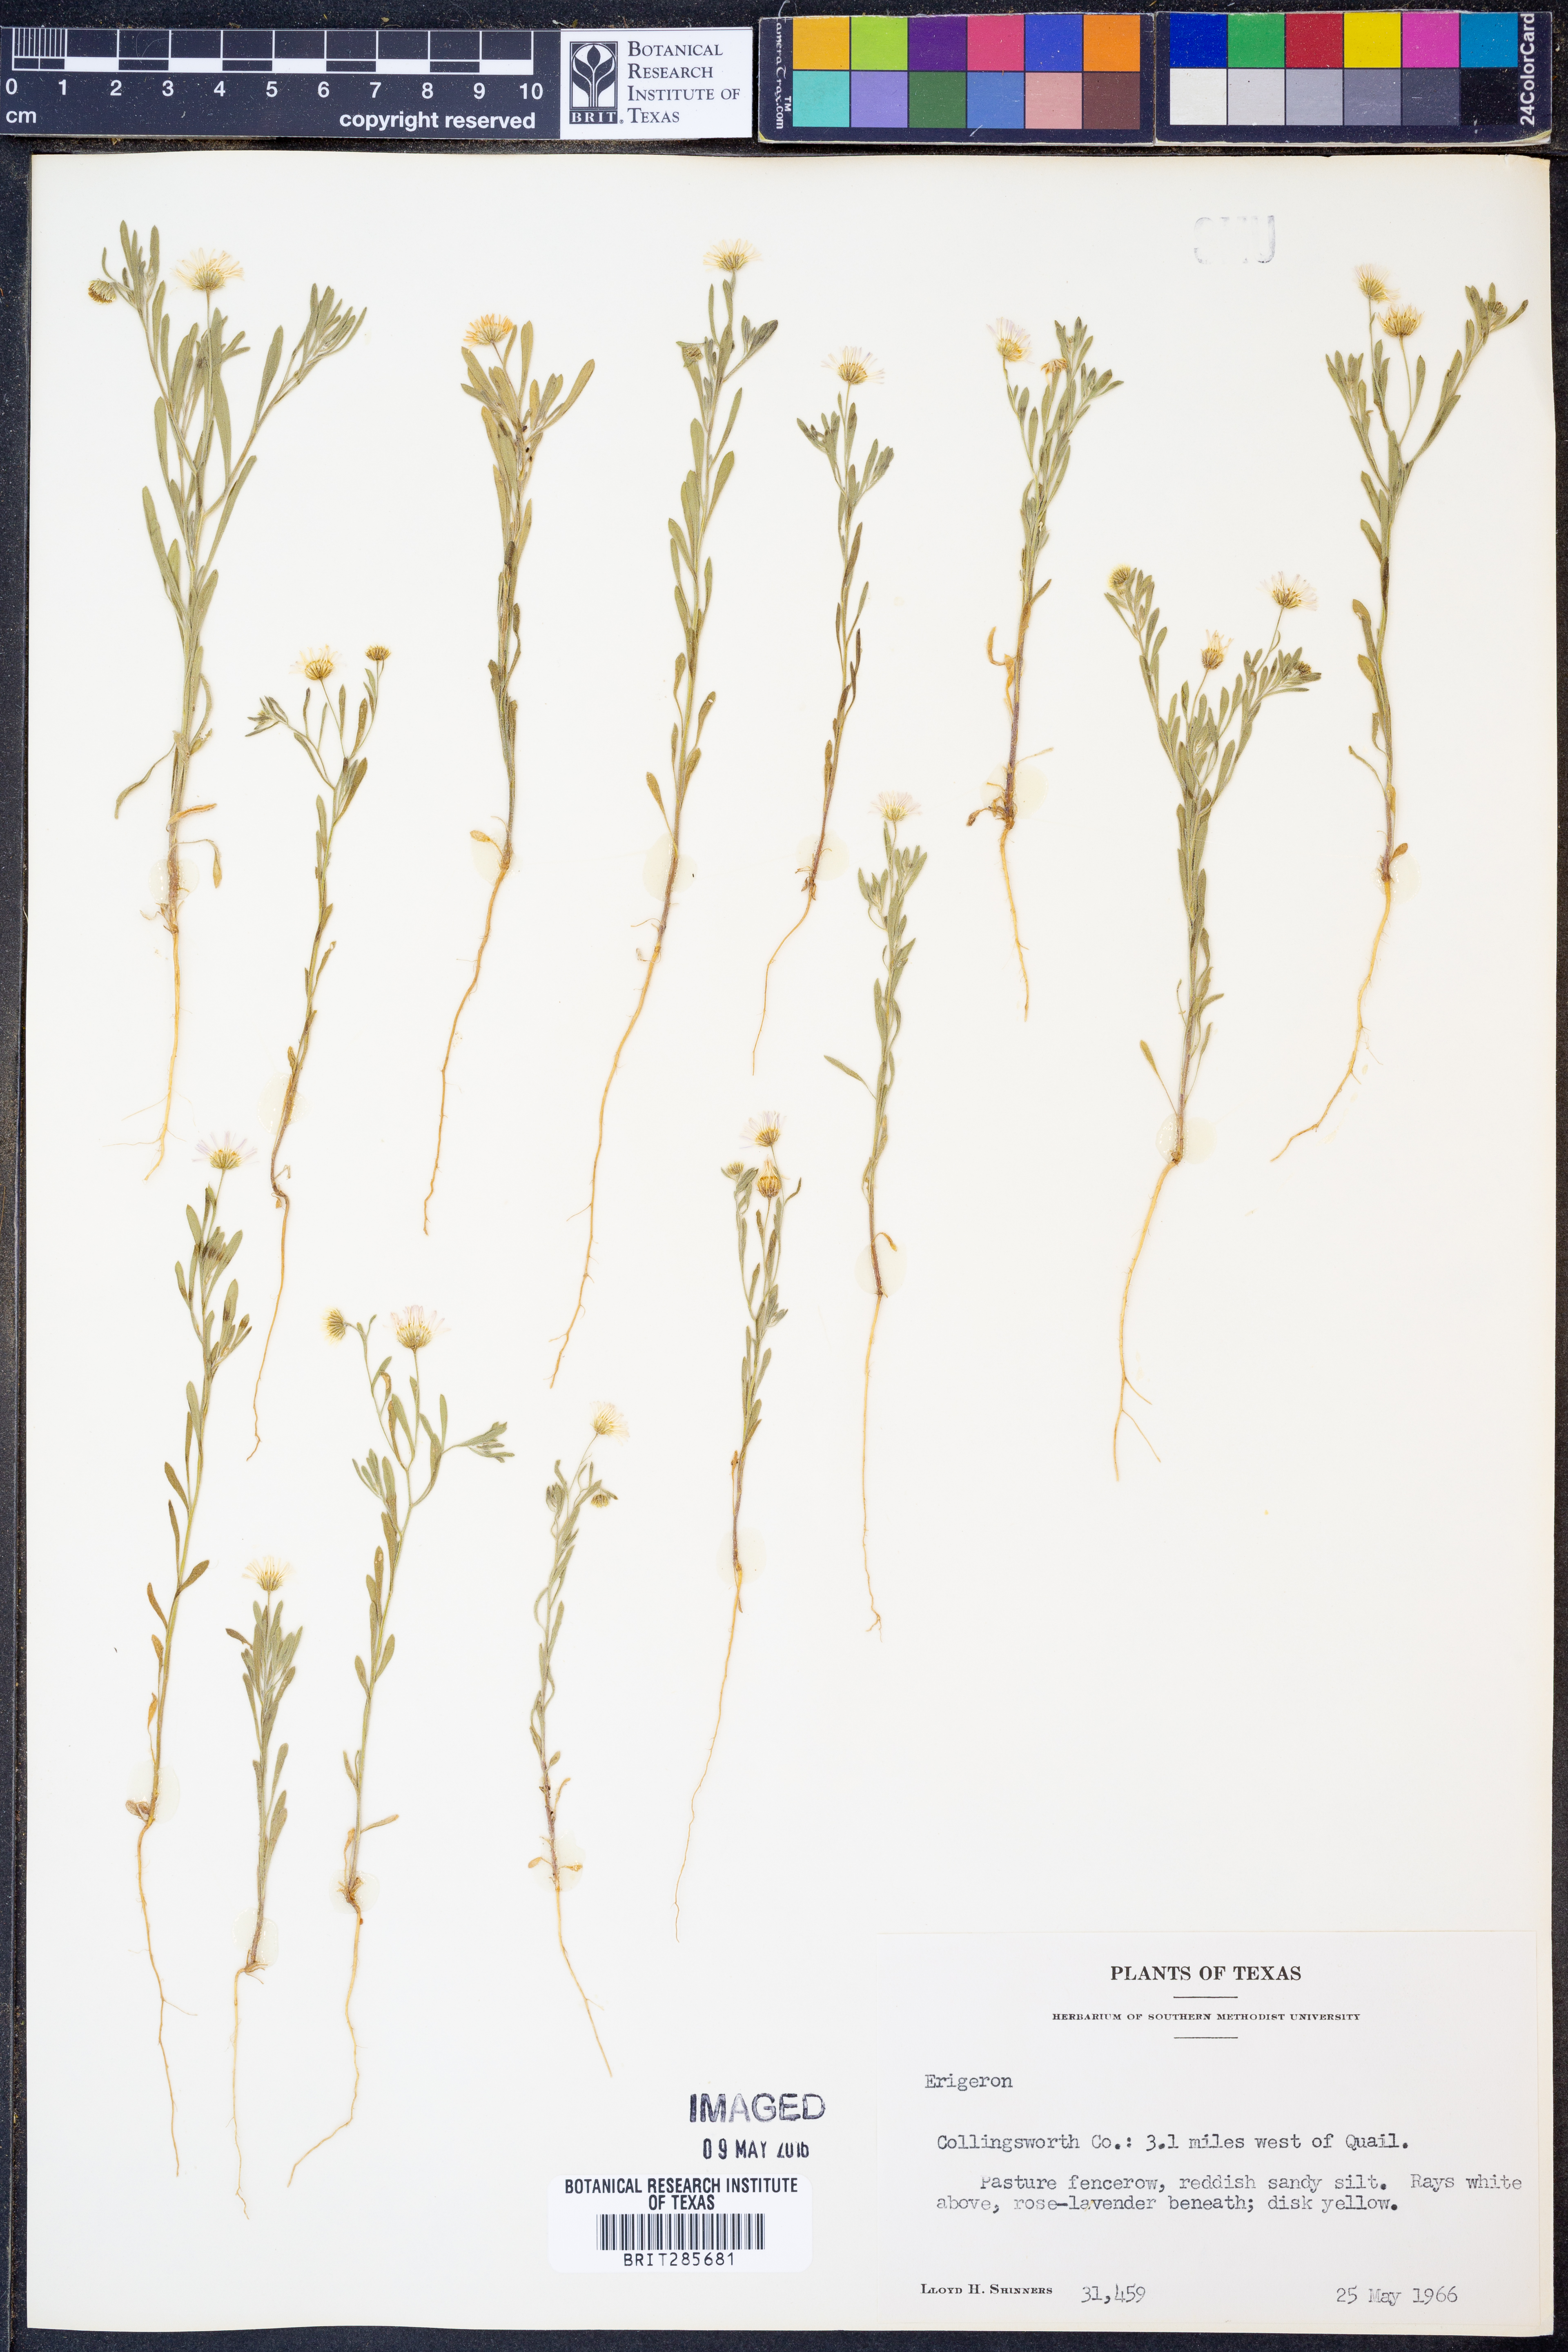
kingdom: Plantae
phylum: Tracheophyta
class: Magnoliopsida
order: Asterales
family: Asteraceae
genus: Erigeron
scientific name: Erigeron
